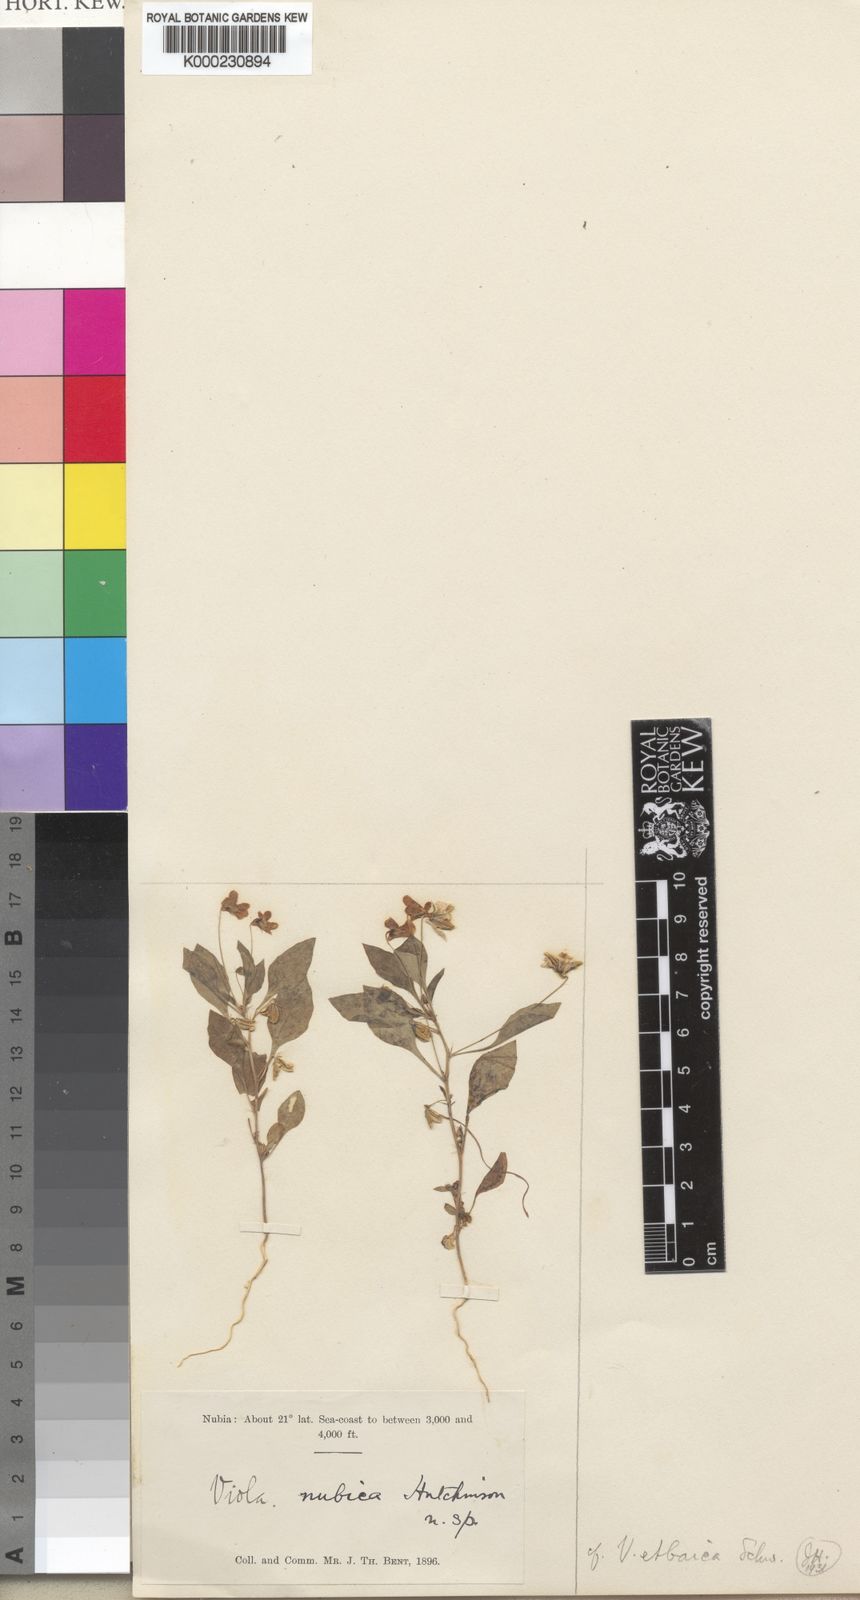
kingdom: Plantae
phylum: Tracheophyta
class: Magnoliopsida
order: Malpighiales
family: Violaceae
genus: Viola
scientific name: Viola cinerea
